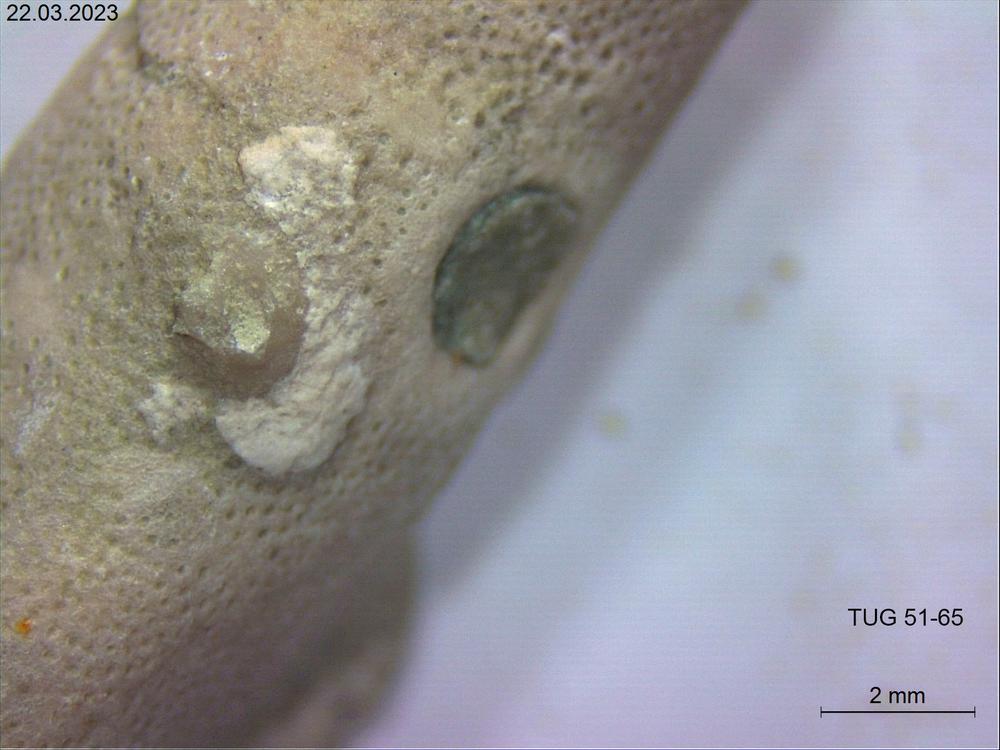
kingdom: Animalia
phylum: Bryozoa
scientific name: Bryozoa
